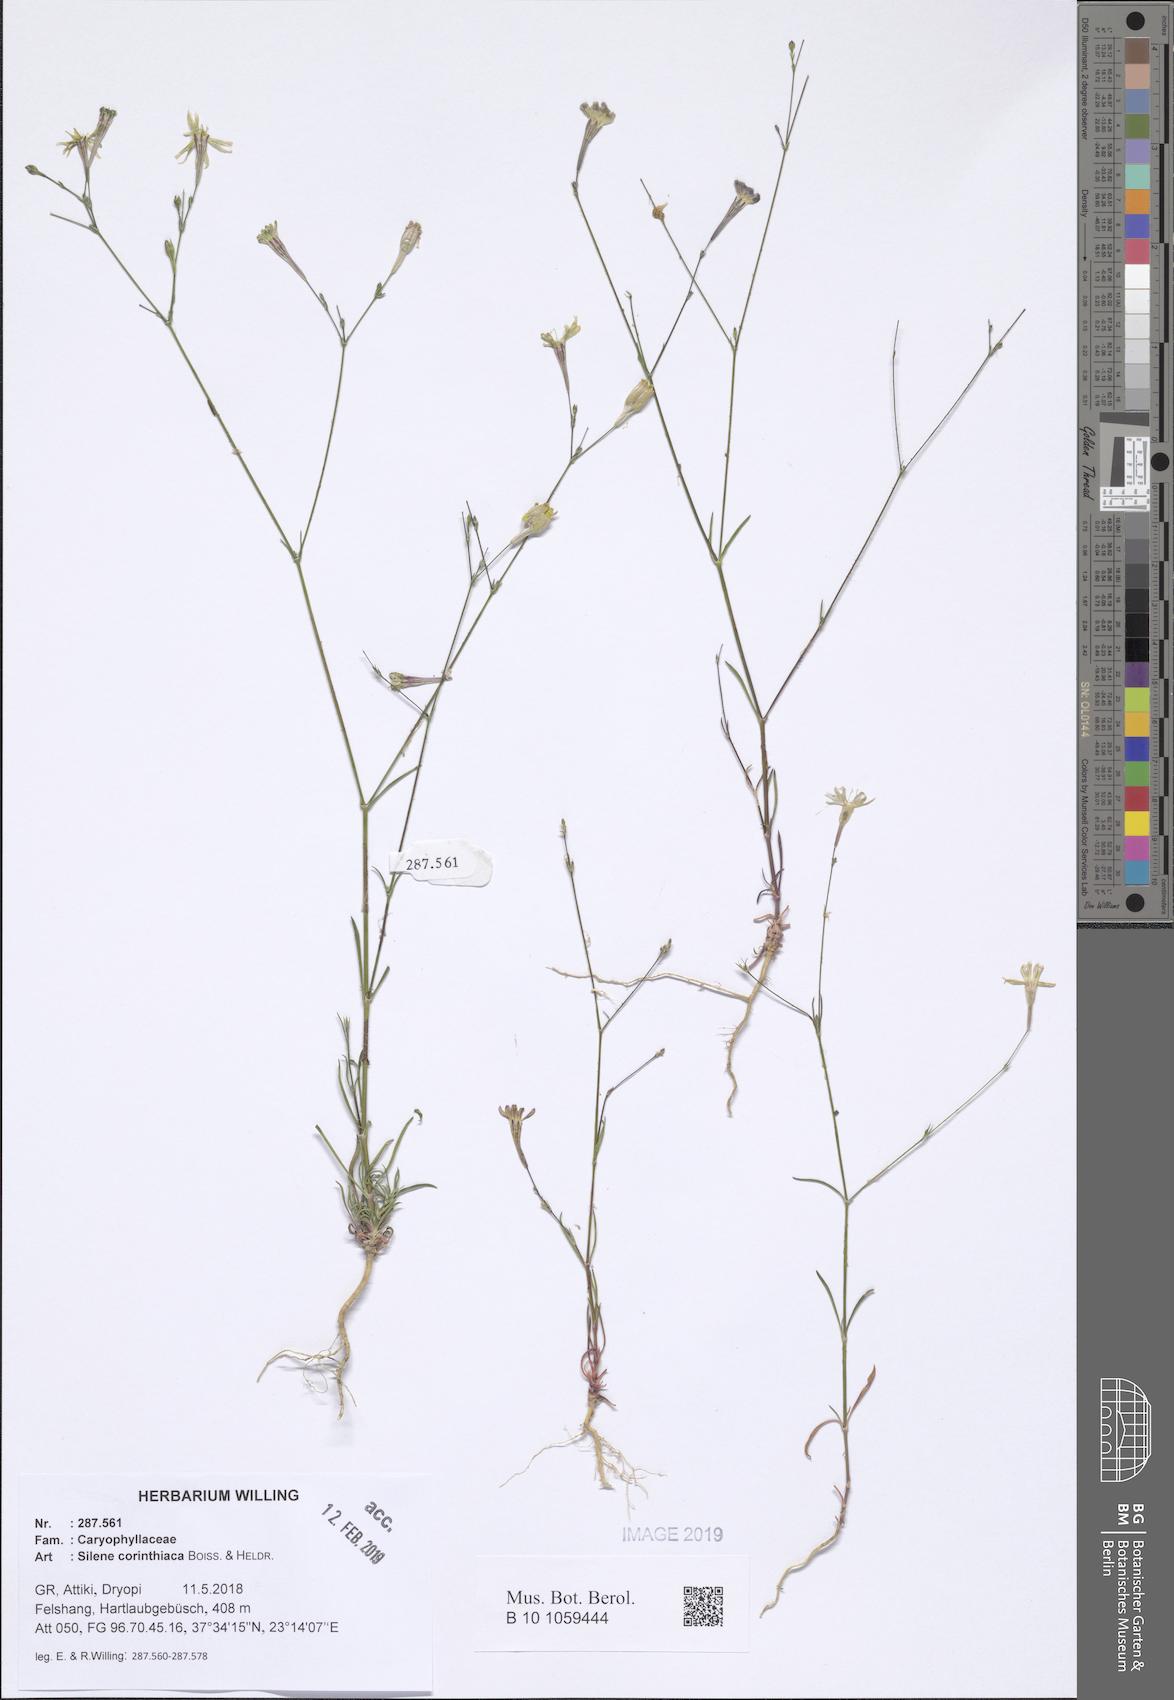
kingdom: Plantae
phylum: Tracheophyta
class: Magnoliopsida
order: Caryophyllales
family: Caryophyllaceae
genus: Silene
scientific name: Silene corinthiaca
